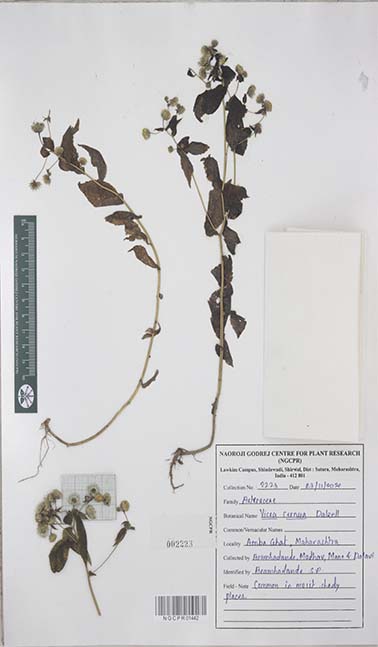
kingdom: Plantae
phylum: Tracheophyta
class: Magnoliopsida
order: Asterales
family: Asteraceae
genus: Vicoa
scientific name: Vicoa cernua
